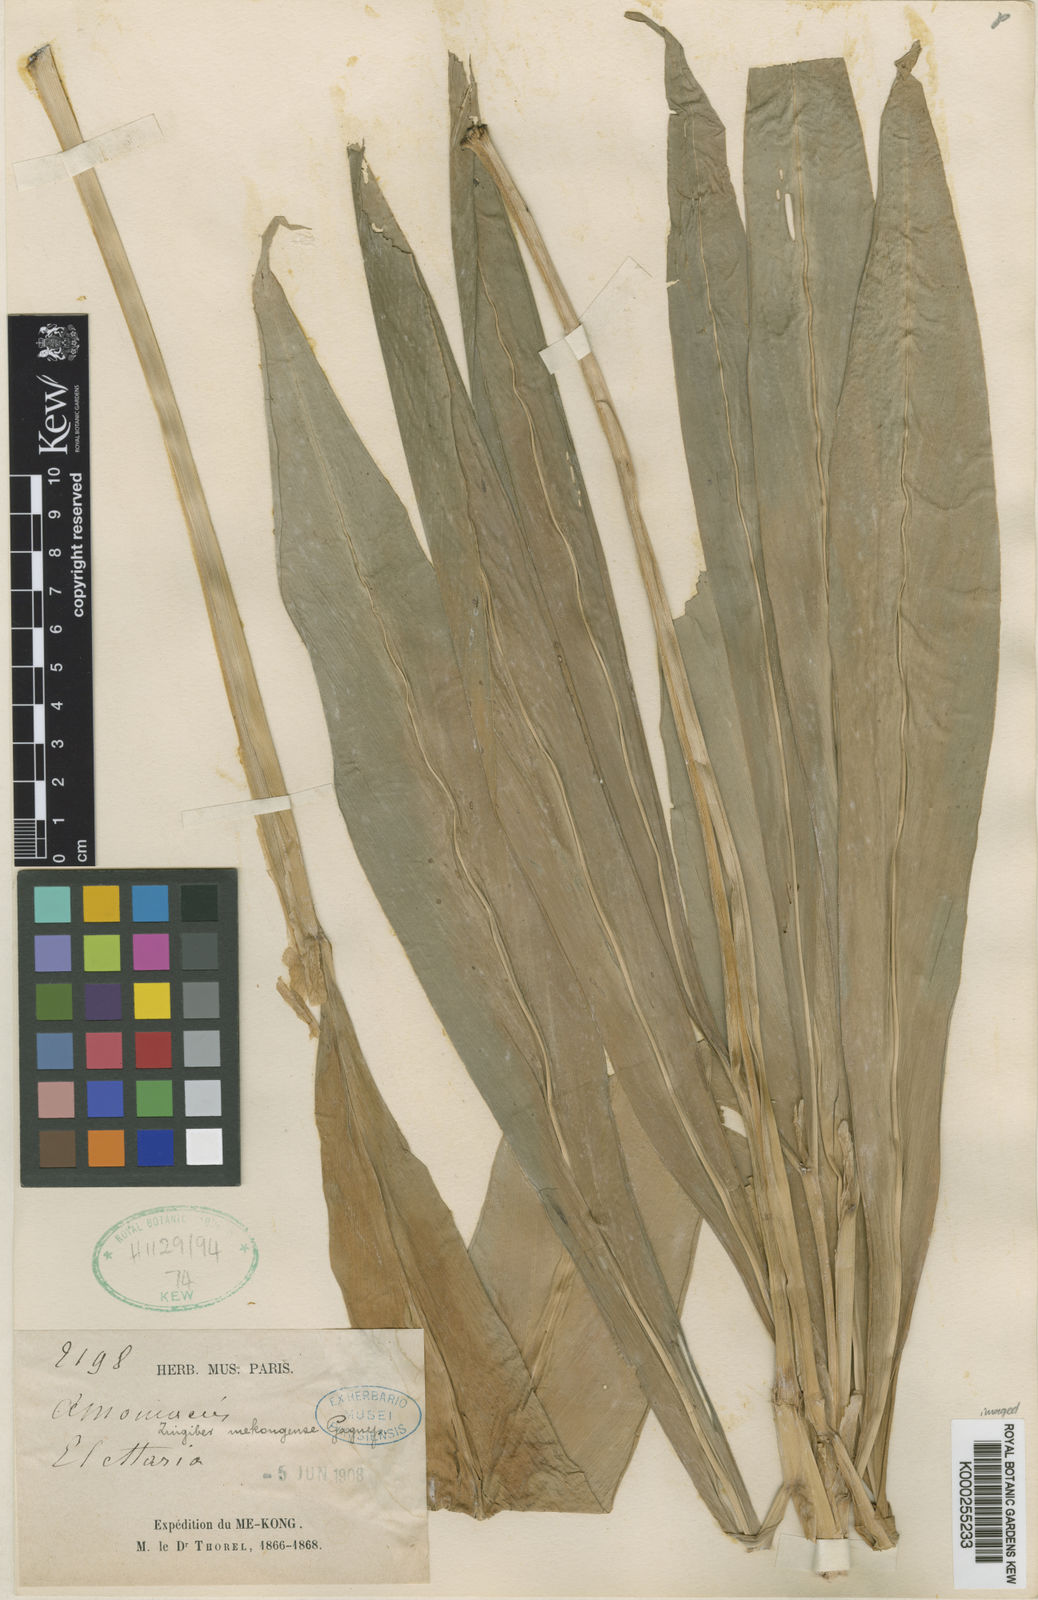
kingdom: Plantae
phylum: Tracheophyta
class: Liliopsida
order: Zingiberales
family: Zingiberaceae
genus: Zingiber
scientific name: Zingiber mekongense
